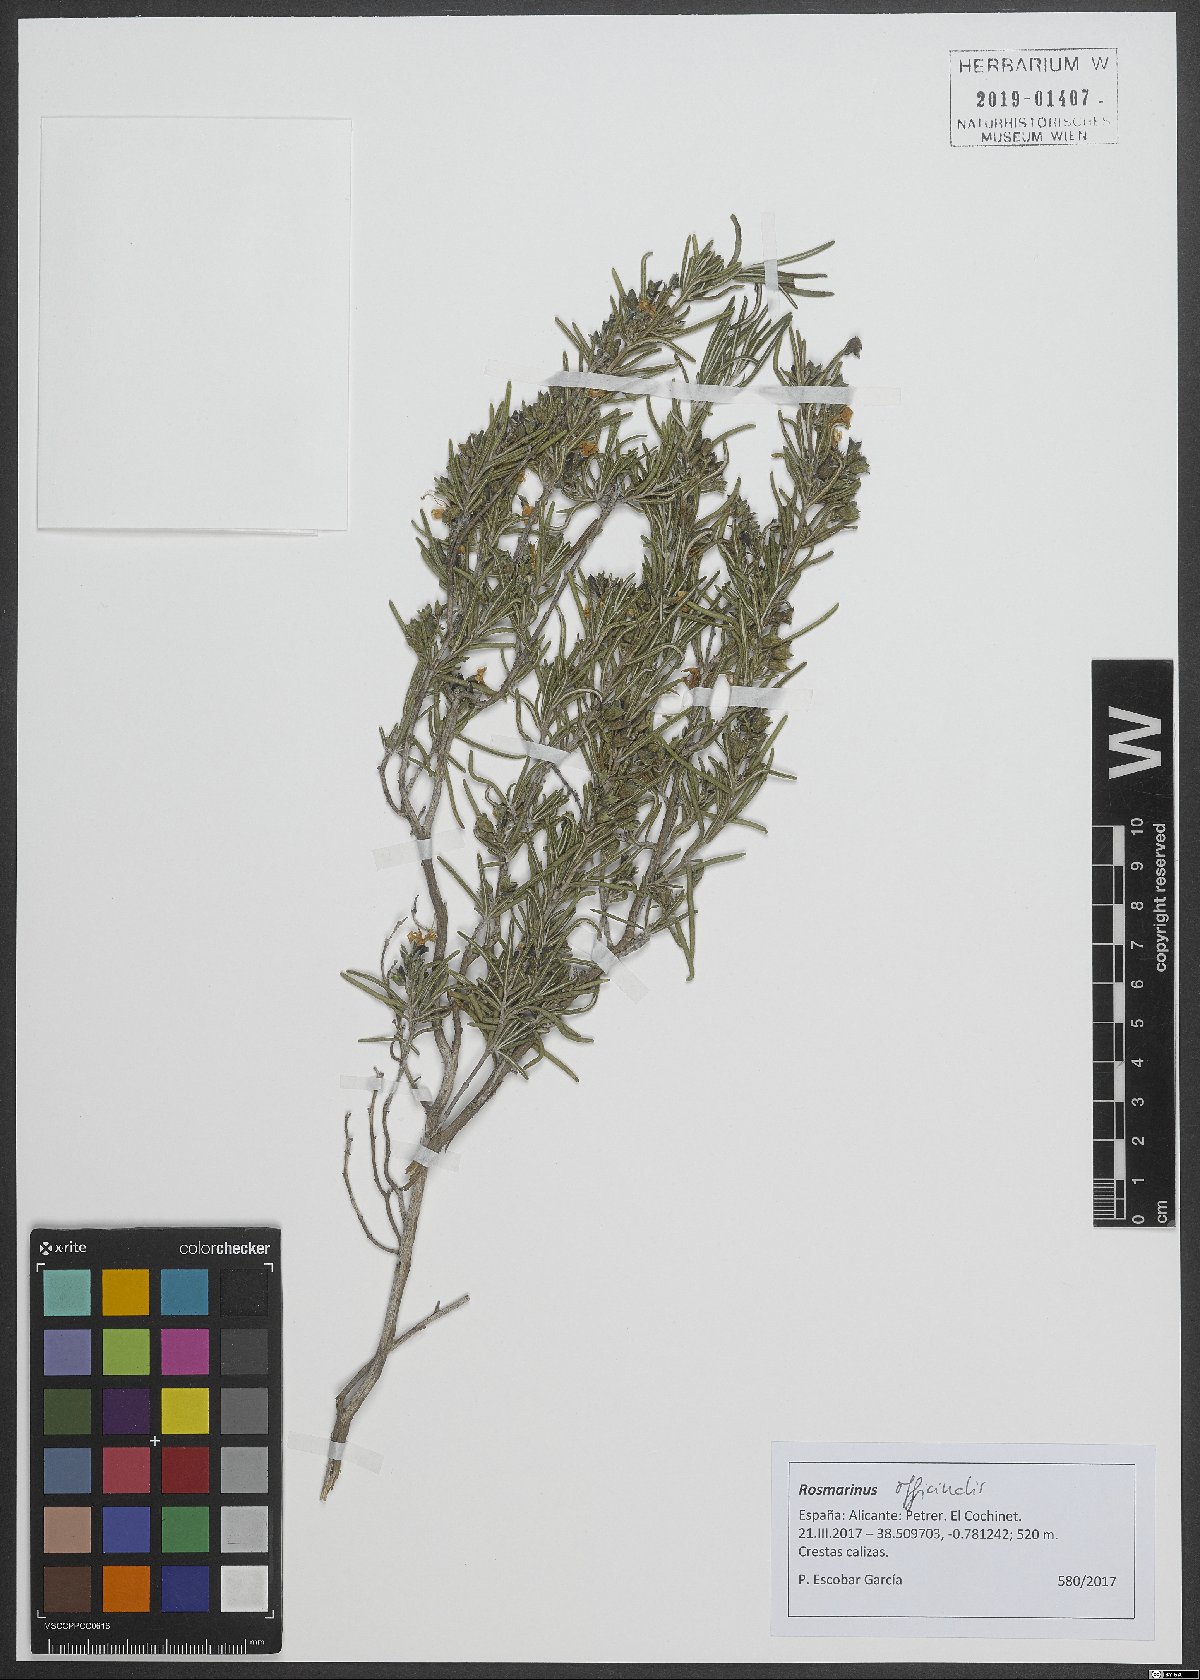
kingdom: Plantae
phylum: Tracheophyta
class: Magnoliopsida
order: Lamiales
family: Lamiaceae
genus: Salvia
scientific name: Salvia rosmarinus
